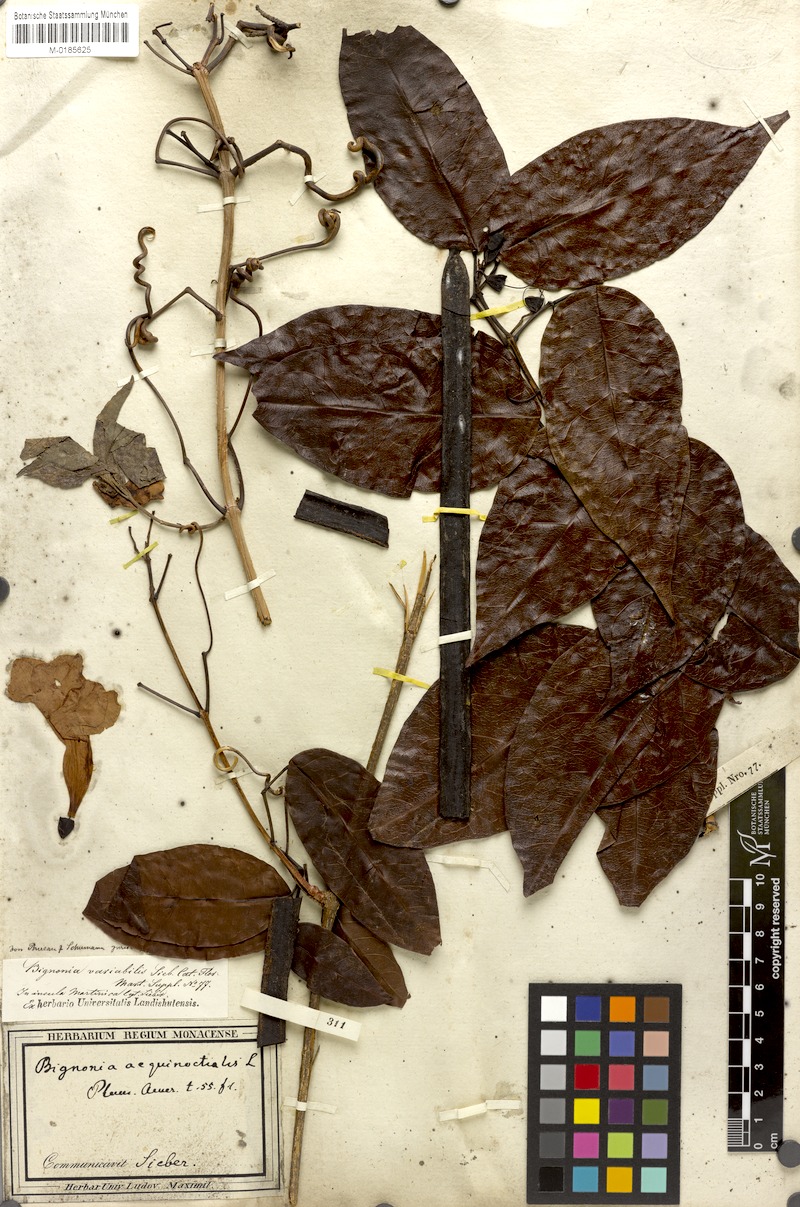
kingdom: Plantae
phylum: Tracheophyta
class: Magnoliopsida
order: Lamiales
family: Bignoniaceae
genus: Bignonia
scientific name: Bignonia aequinoctialis
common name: Garlicvine
